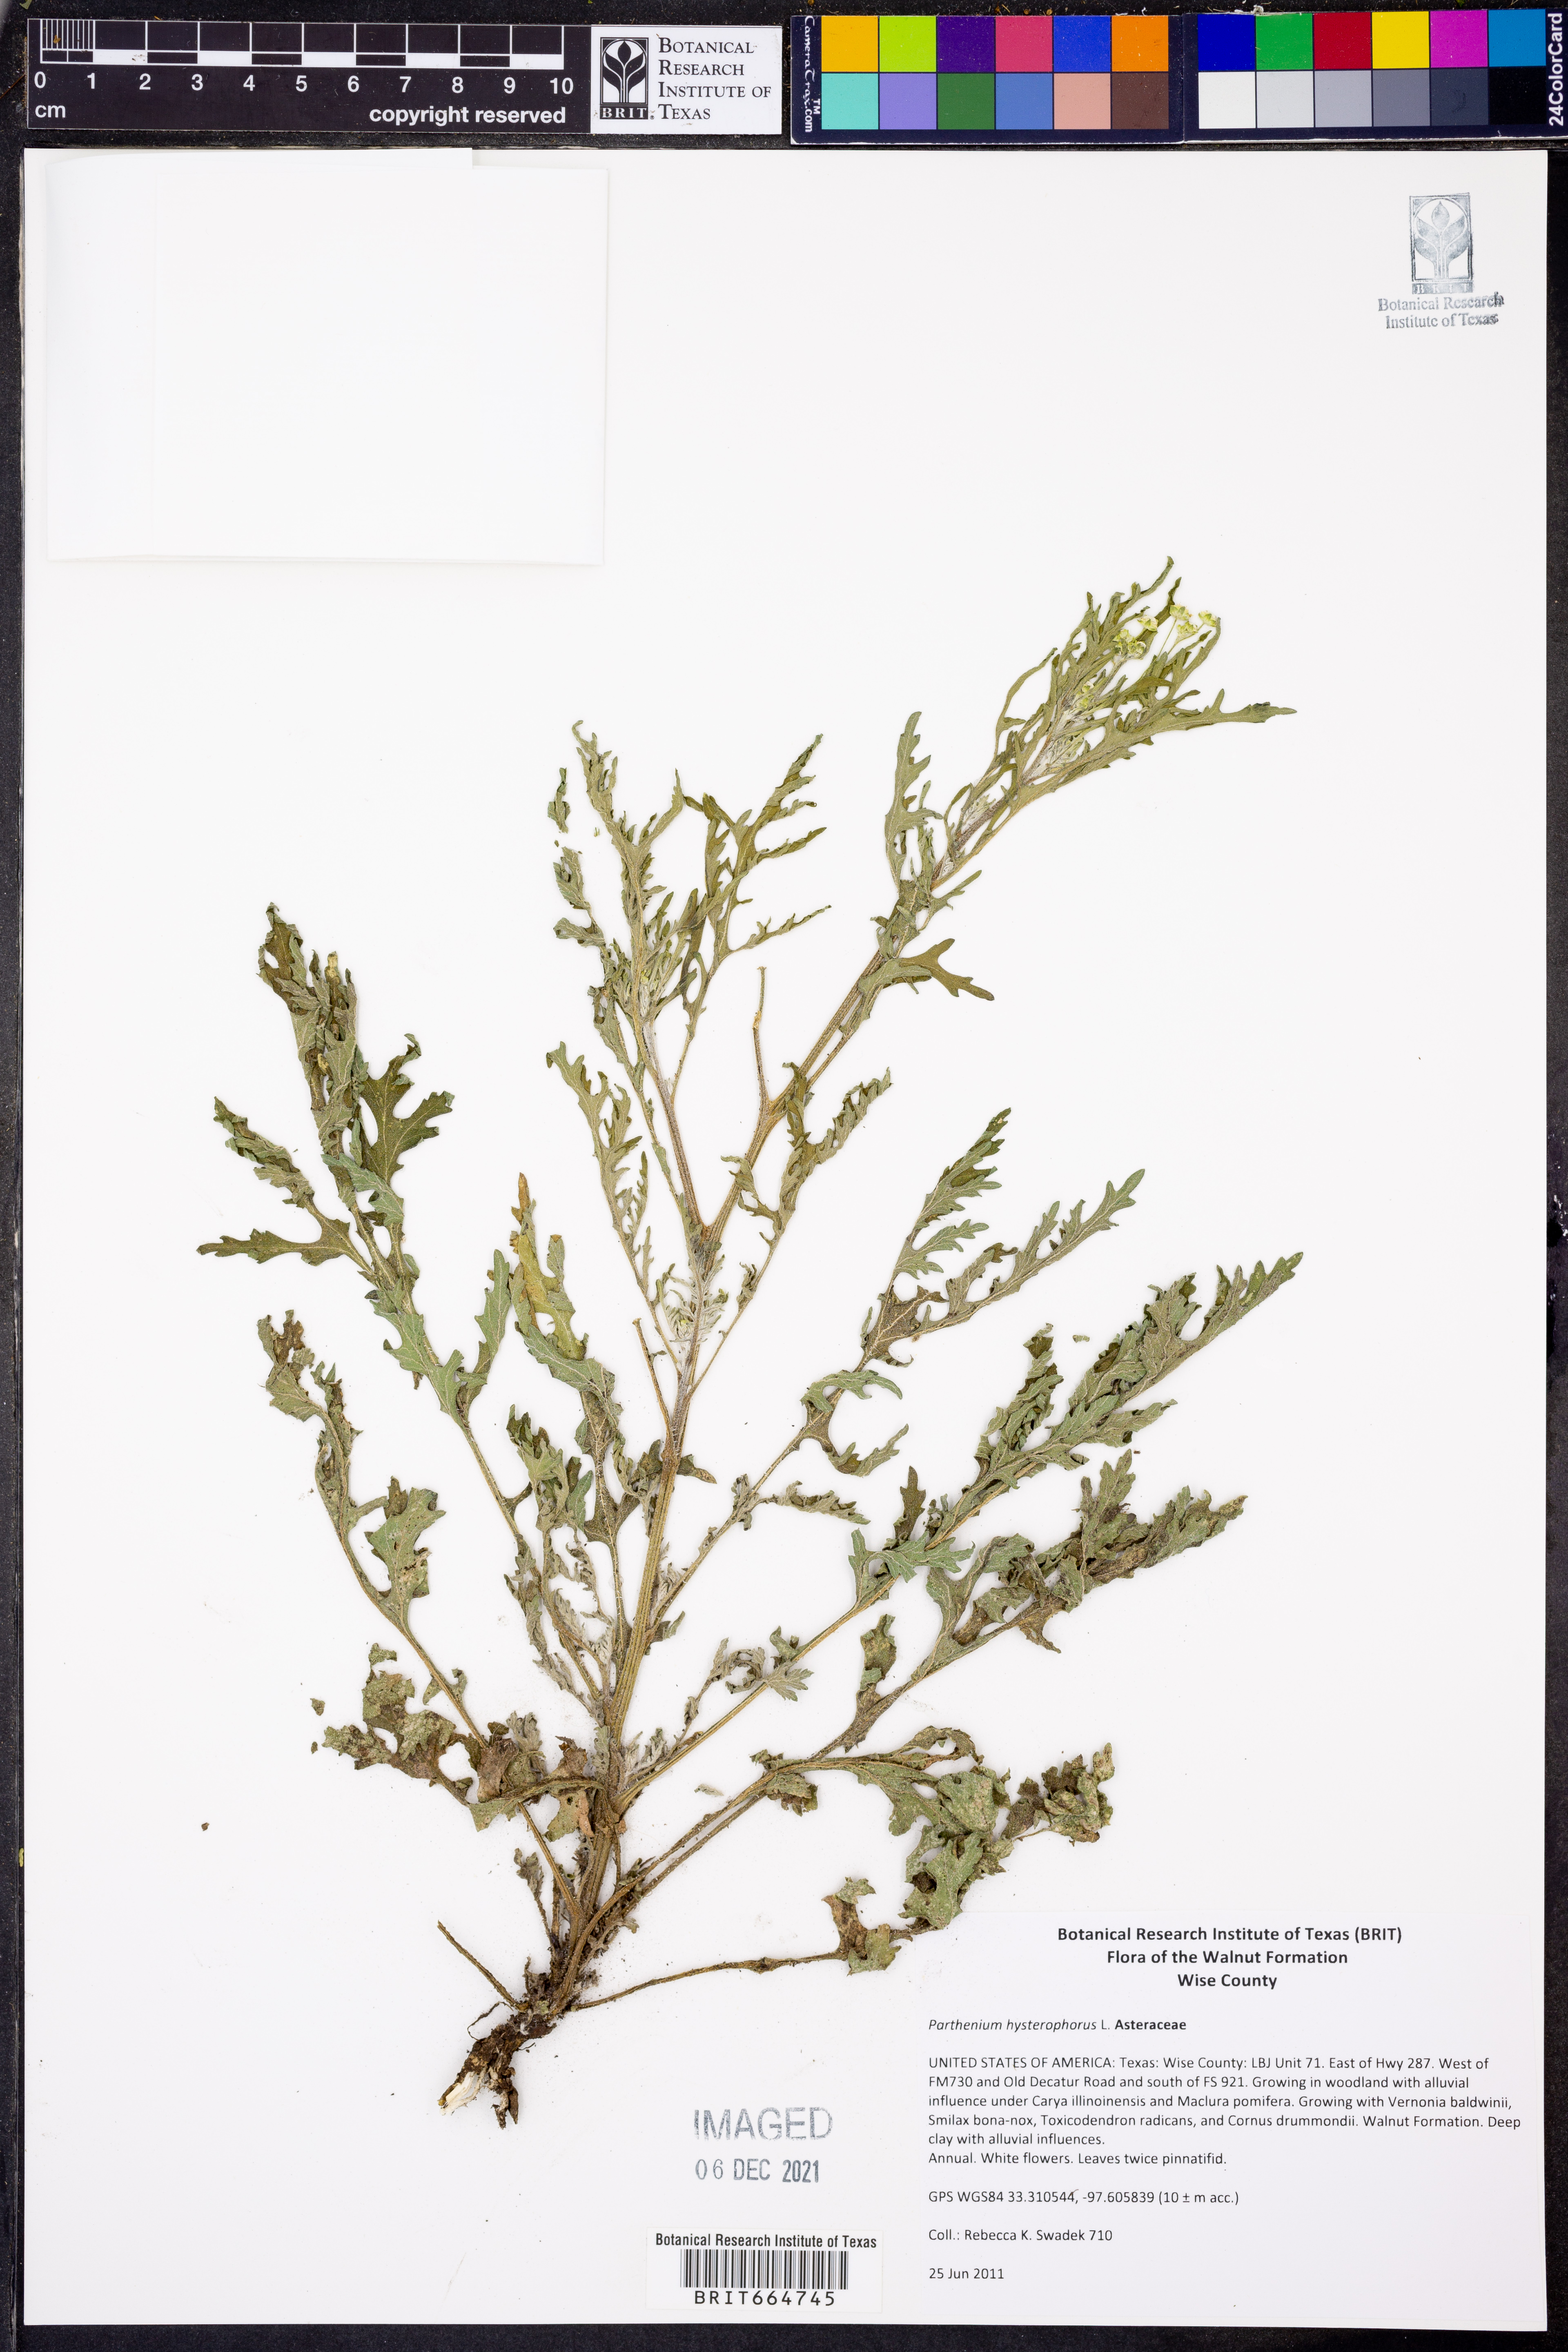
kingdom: Plantae
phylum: Tracheophyta
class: Magnoliopsida
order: Asterales
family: Asteraceae
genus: Parthenium
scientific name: Parthenium hysterophorus
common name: Santa maria feverfew
